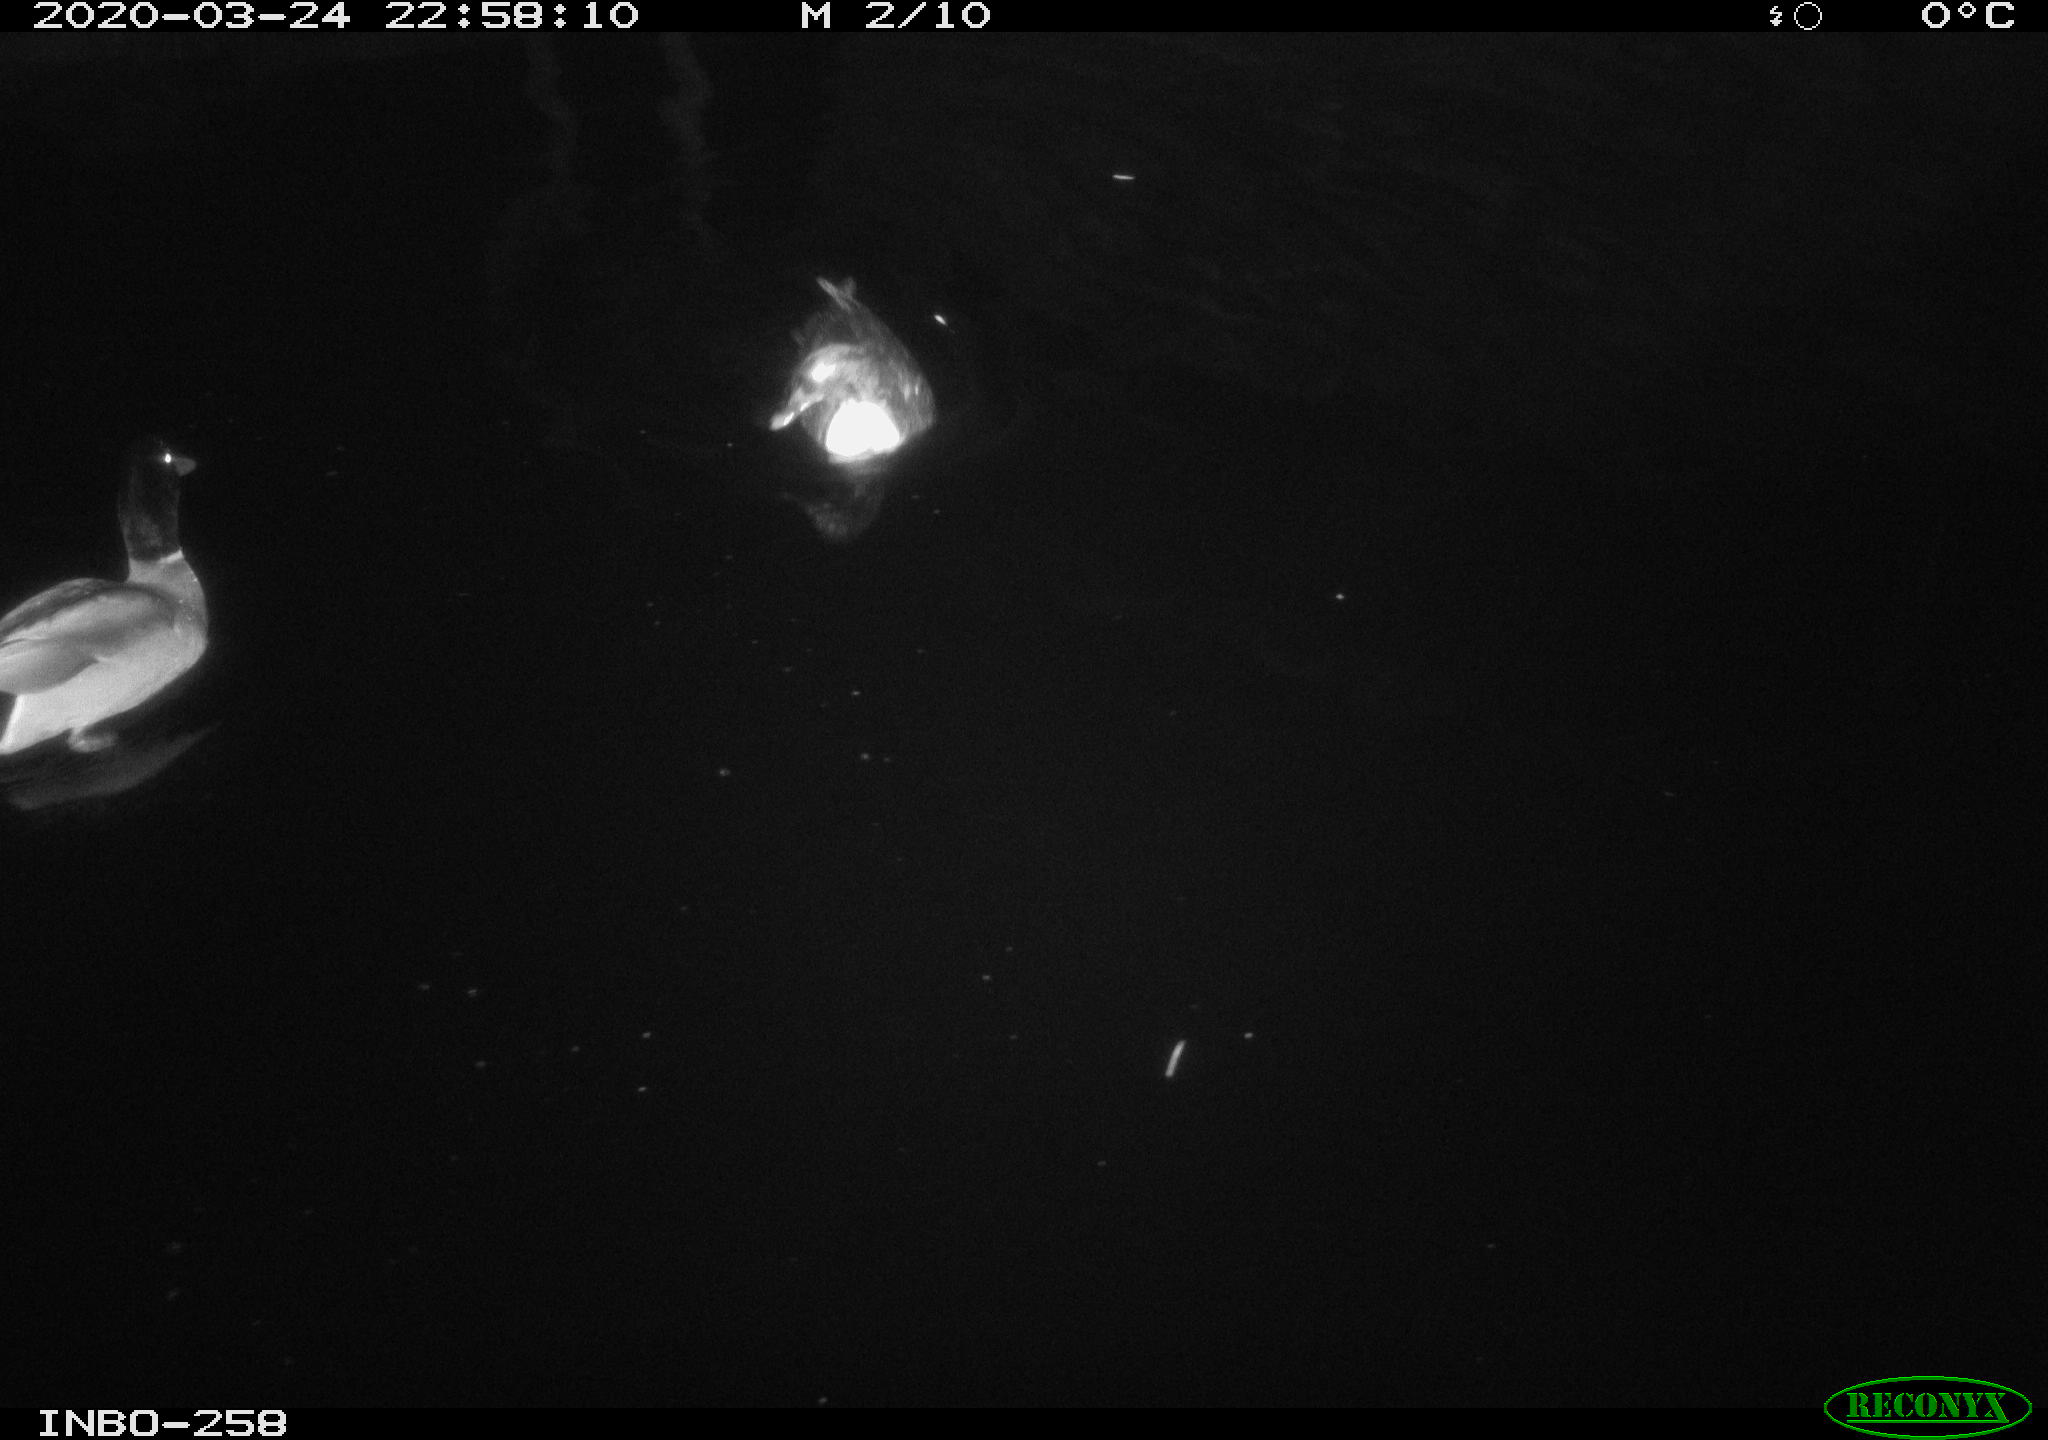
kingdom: Animalia
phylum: Chordata
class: Aves
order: Anseriformes
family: Anatidae
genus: Anas
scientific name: Anas platyrhynchos
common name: Mallard
